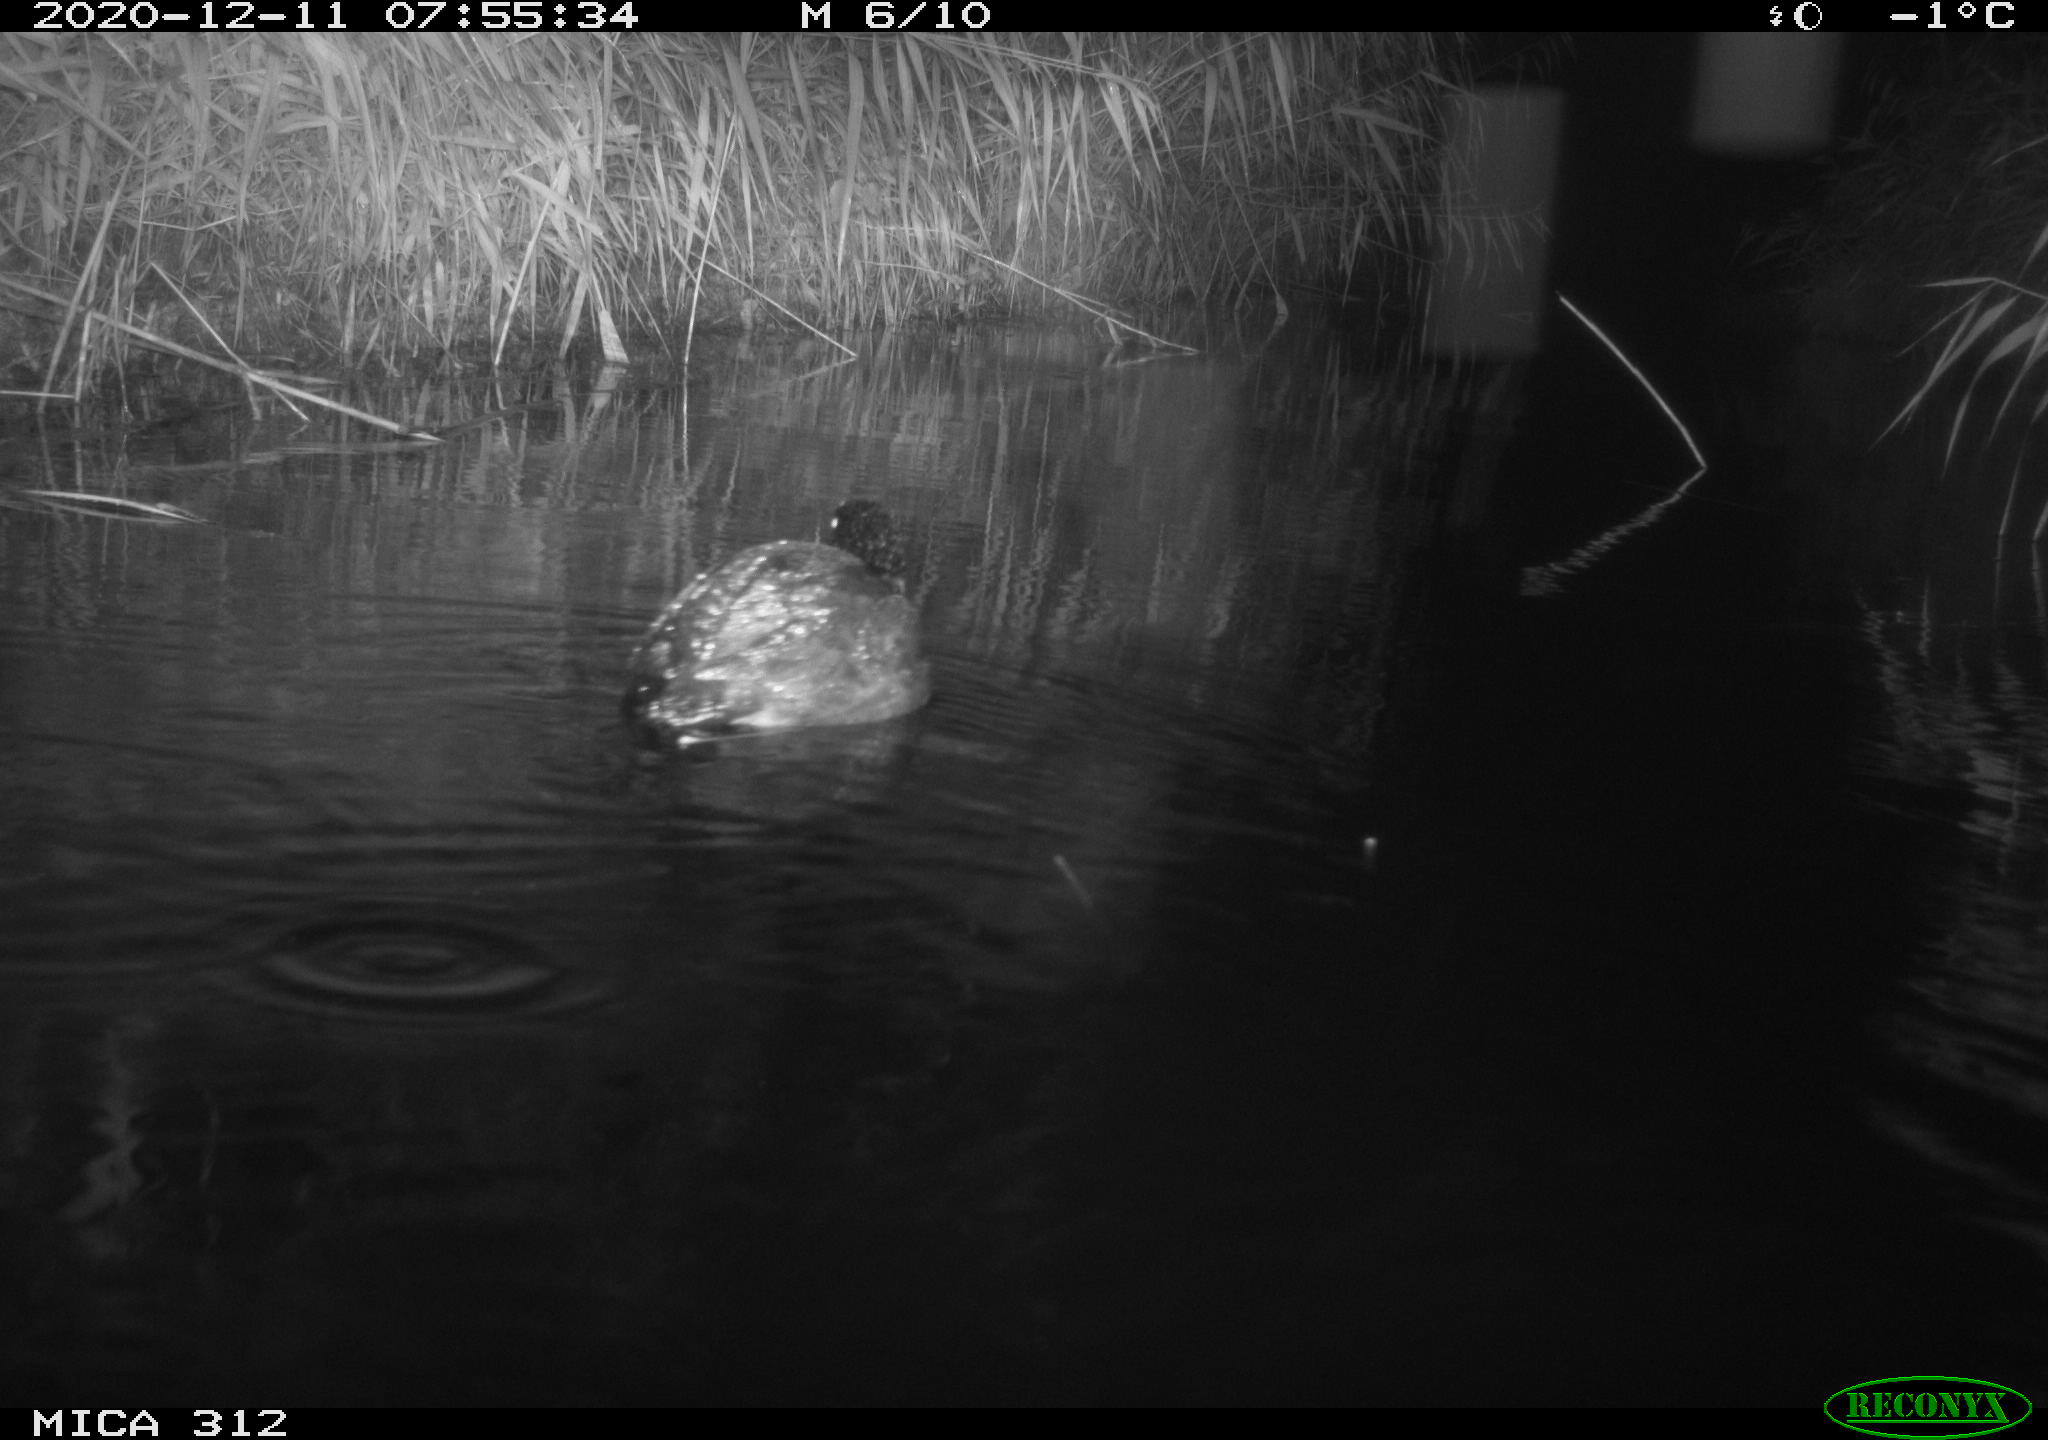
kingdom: Animalia
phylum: Chordata
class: Aves
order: Gruiformes
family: Rallidae
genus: Fulica
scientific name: Fulica atra
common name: Eurasian coot
